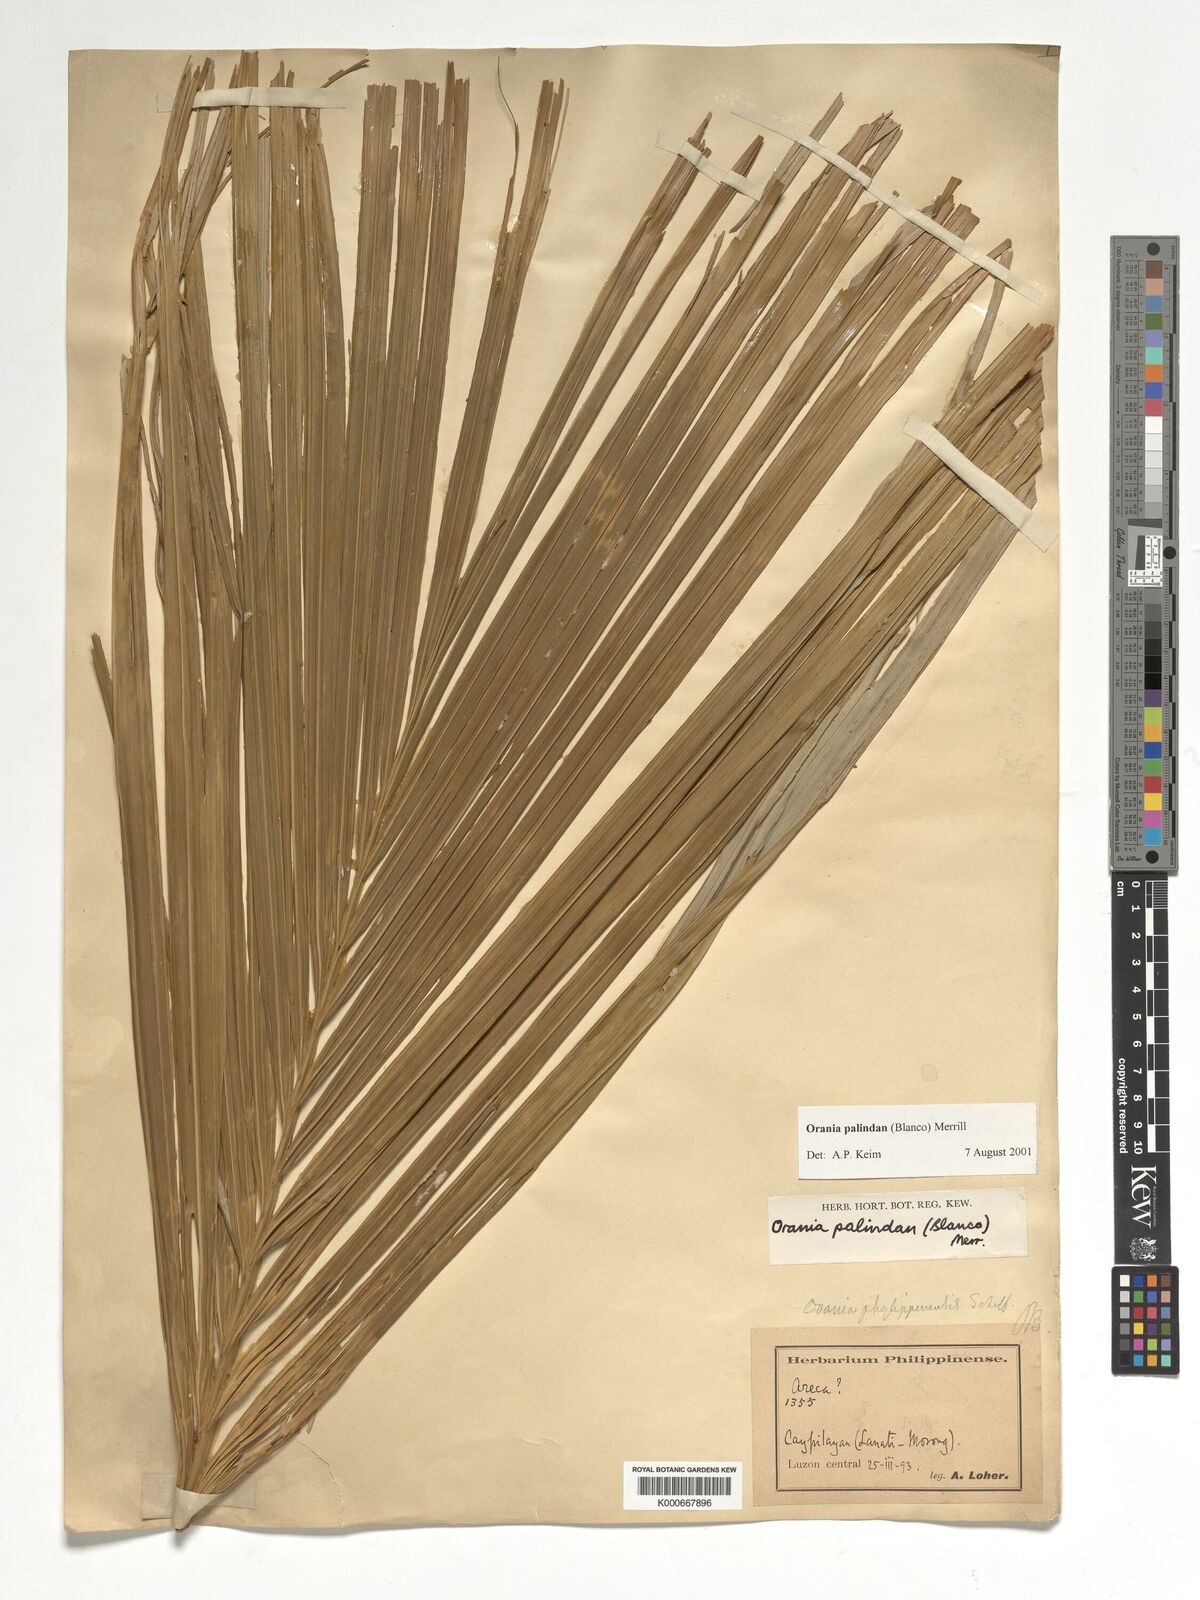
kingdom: Plantae
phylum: Tracheophyta
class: Liliopsida
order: Arecales
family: Arecaceae
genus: Orania
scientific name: Orania palindan
